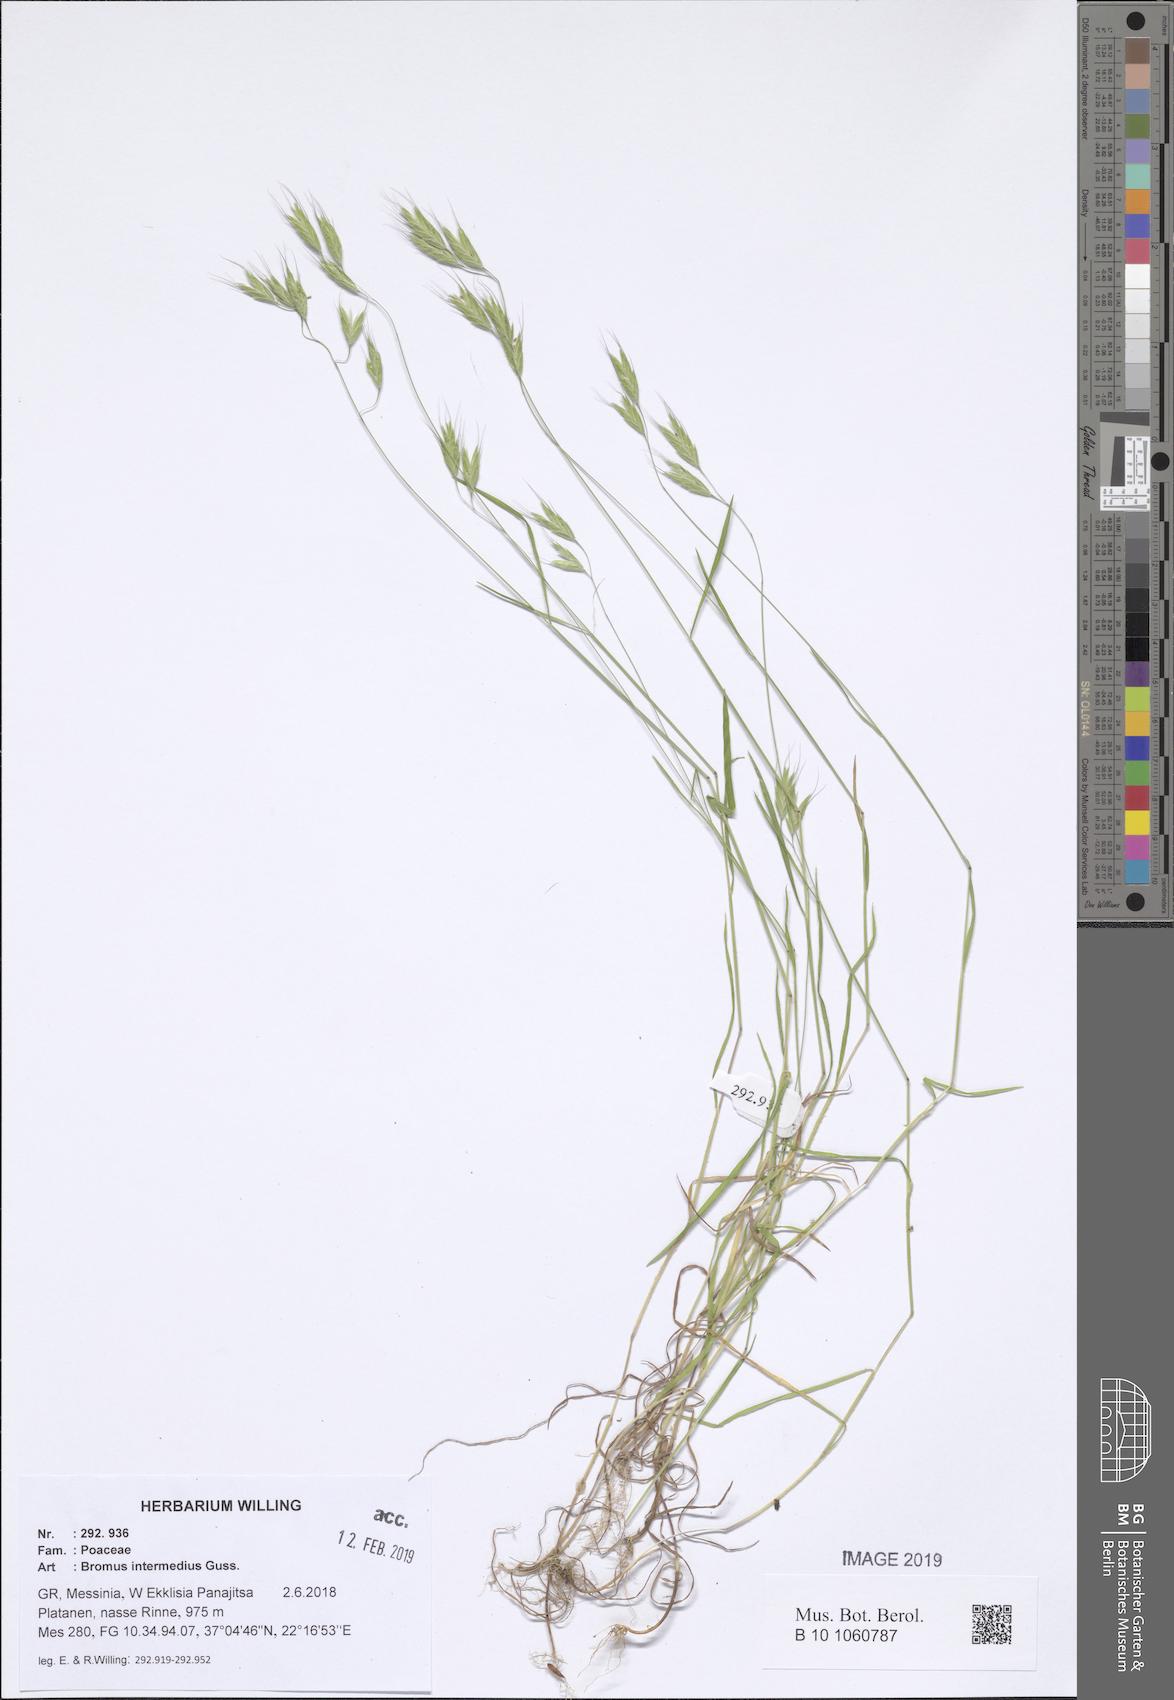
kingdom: Plantae
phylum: Tracheophyta
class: Liliopsida
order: Poales
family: Poaceae
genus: Bromus
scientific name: Bromus intermedius
